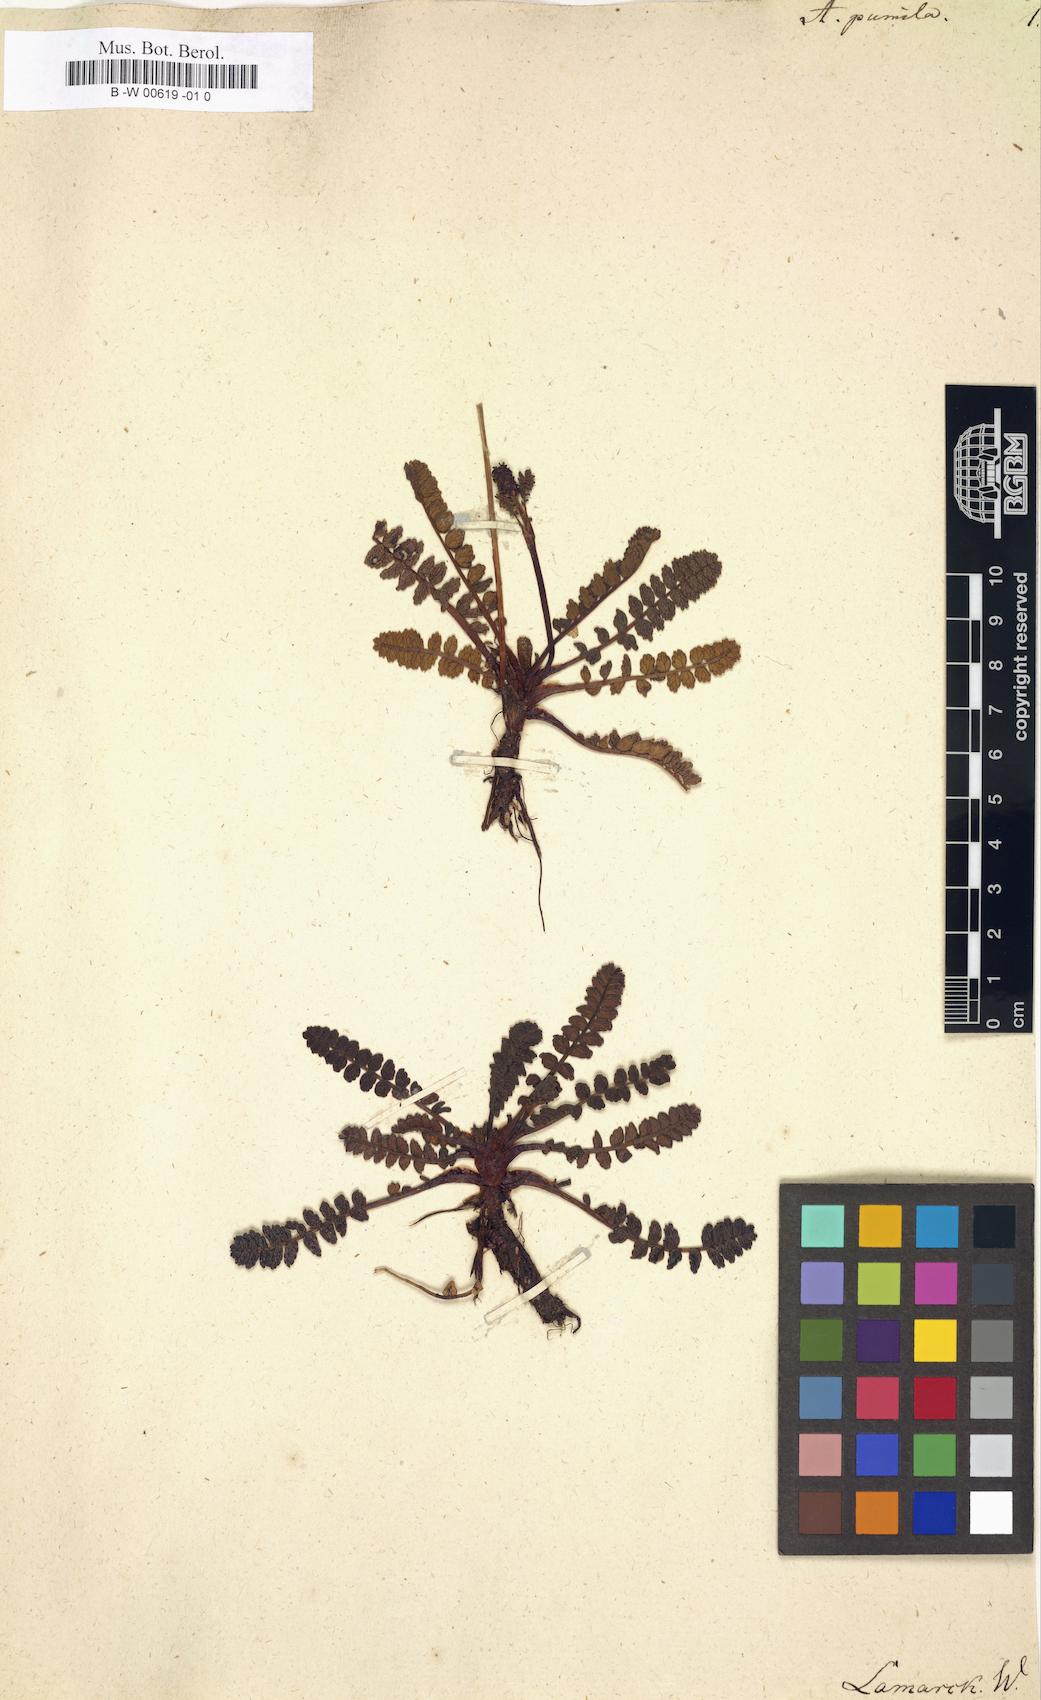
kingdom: Plantae
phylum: Tracheophyta
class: Magnoliopsida
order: Rosales
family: Rosaceae
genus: Acaena
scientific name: Acaena pumila
